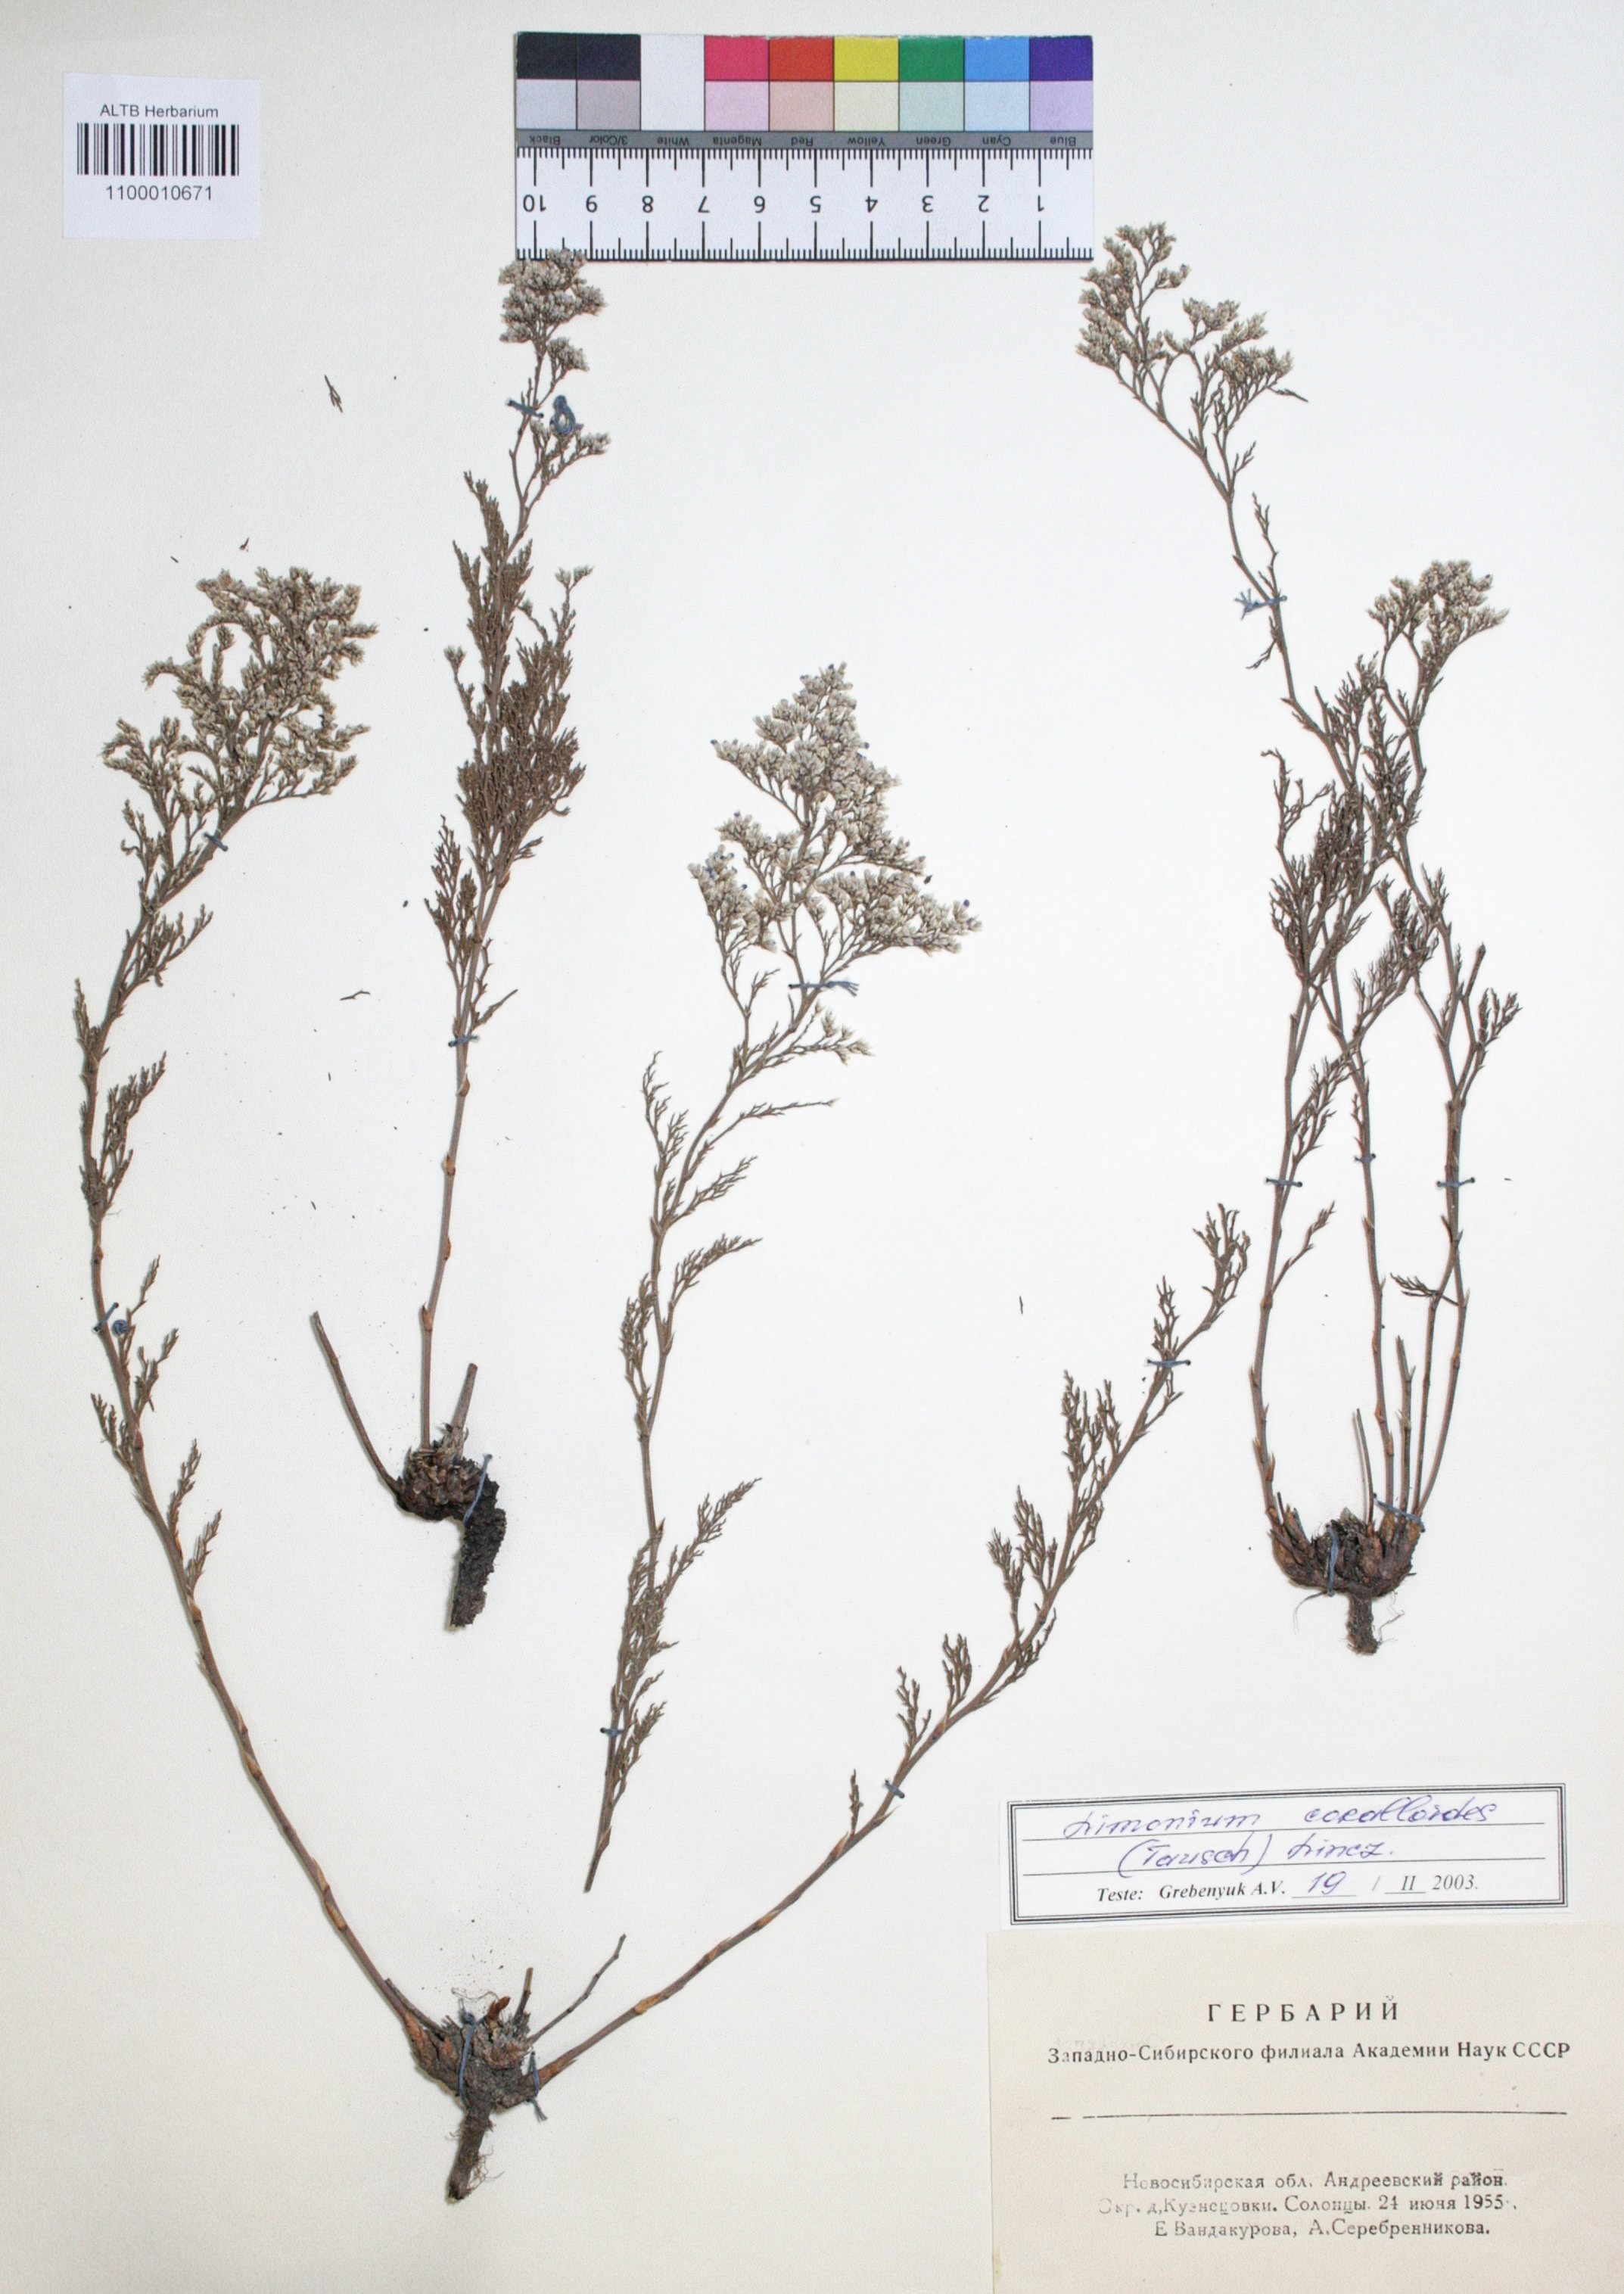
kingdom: Plantae
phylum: Tracheophyta
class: Magnoliopsida
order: Caryophyllales
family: Plumbaginaceae
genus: Limonium
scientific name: Limonium coralloides
